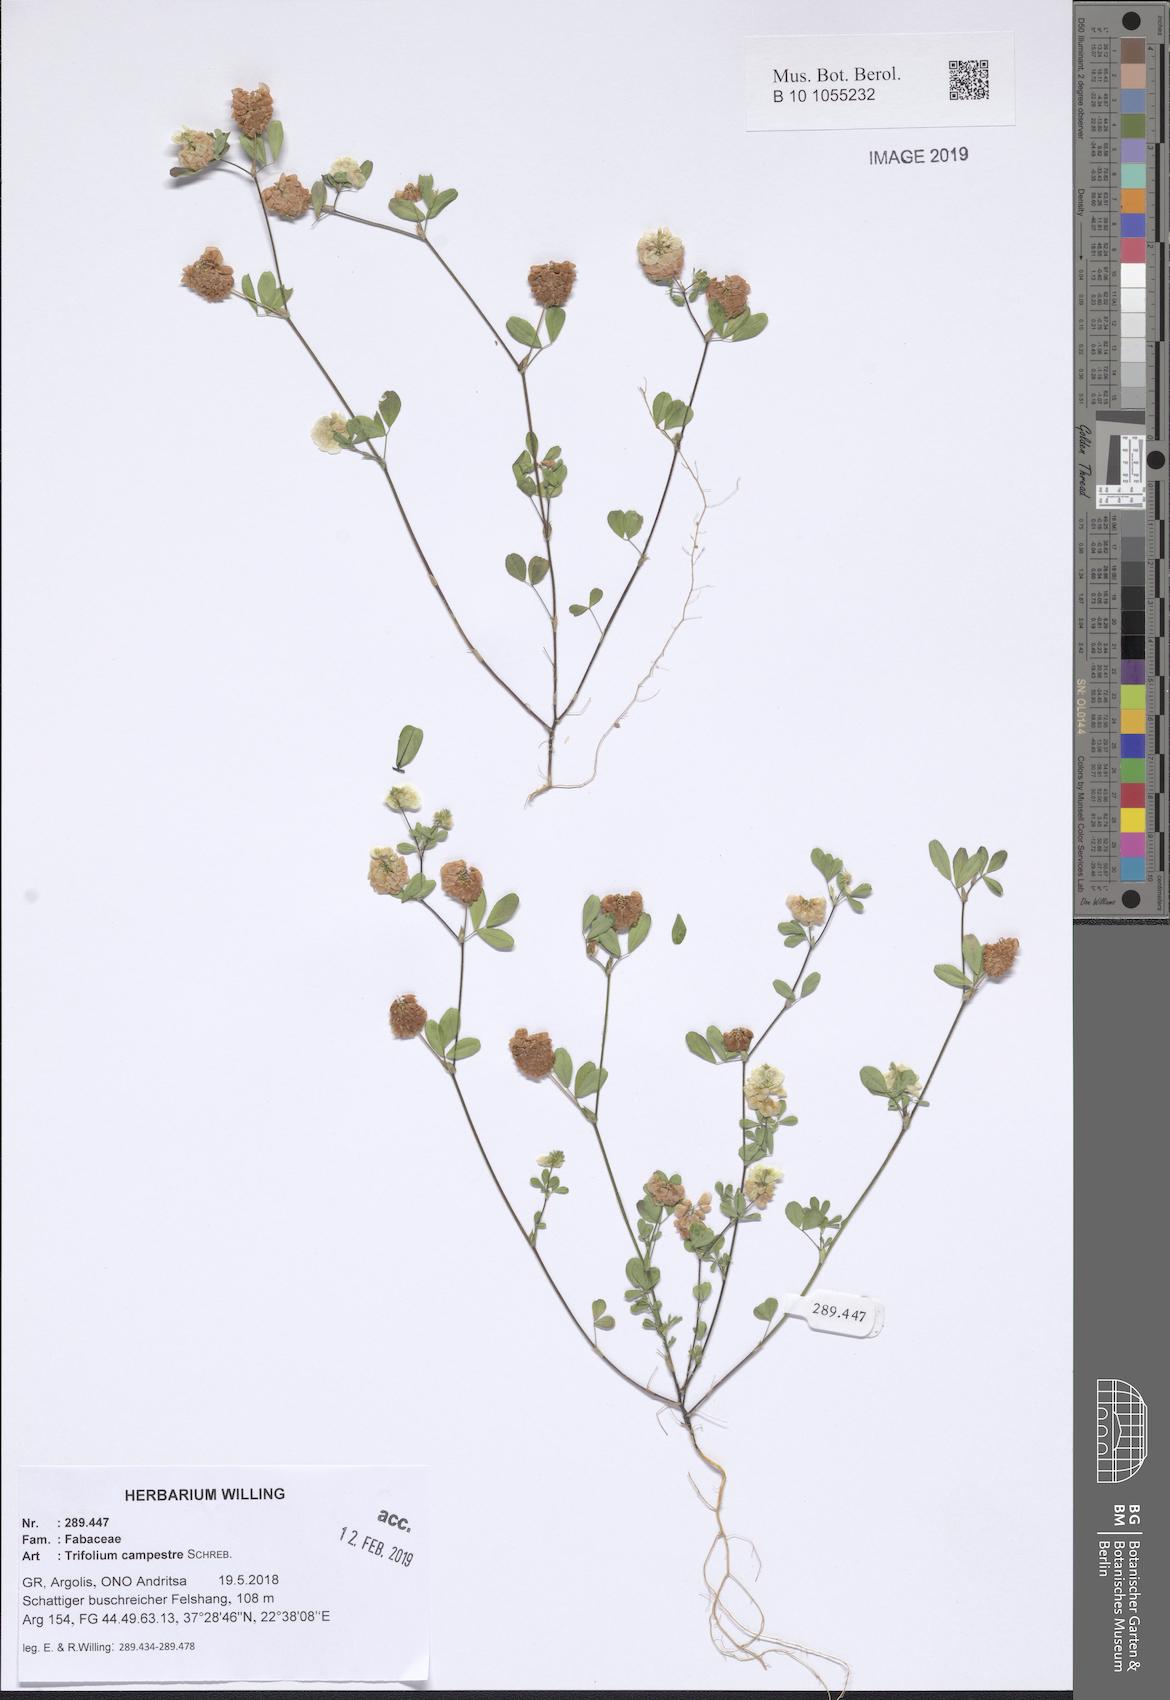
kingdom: Plantae
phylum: Tracheophyta
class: Magnoliopsida
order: Fabales
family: Fabaceae
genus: Trifolium
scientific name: Trifolium campestre
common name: Field clover
